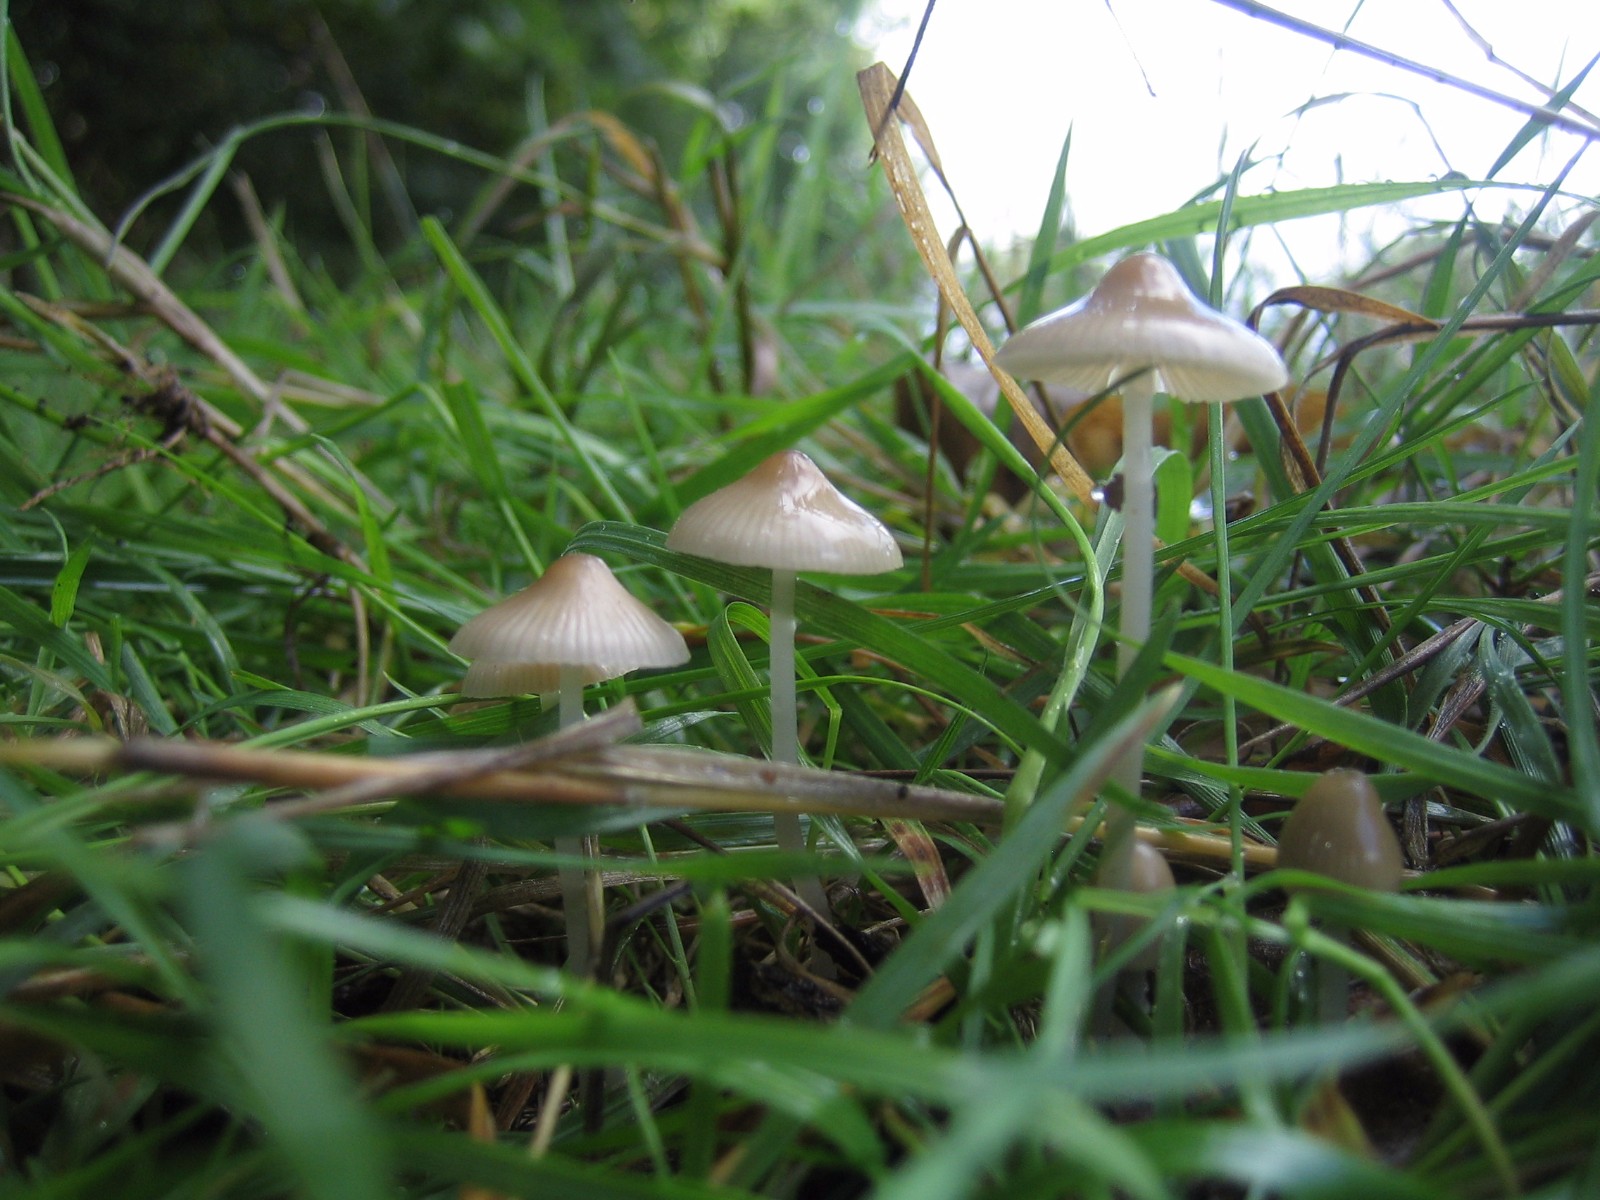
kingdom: Fungi
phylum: Basidiomycota
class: Agaricomycetes
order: Agaricales
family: Mycenaceae
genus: Mycena
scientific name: Mycena
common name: huesvamp
